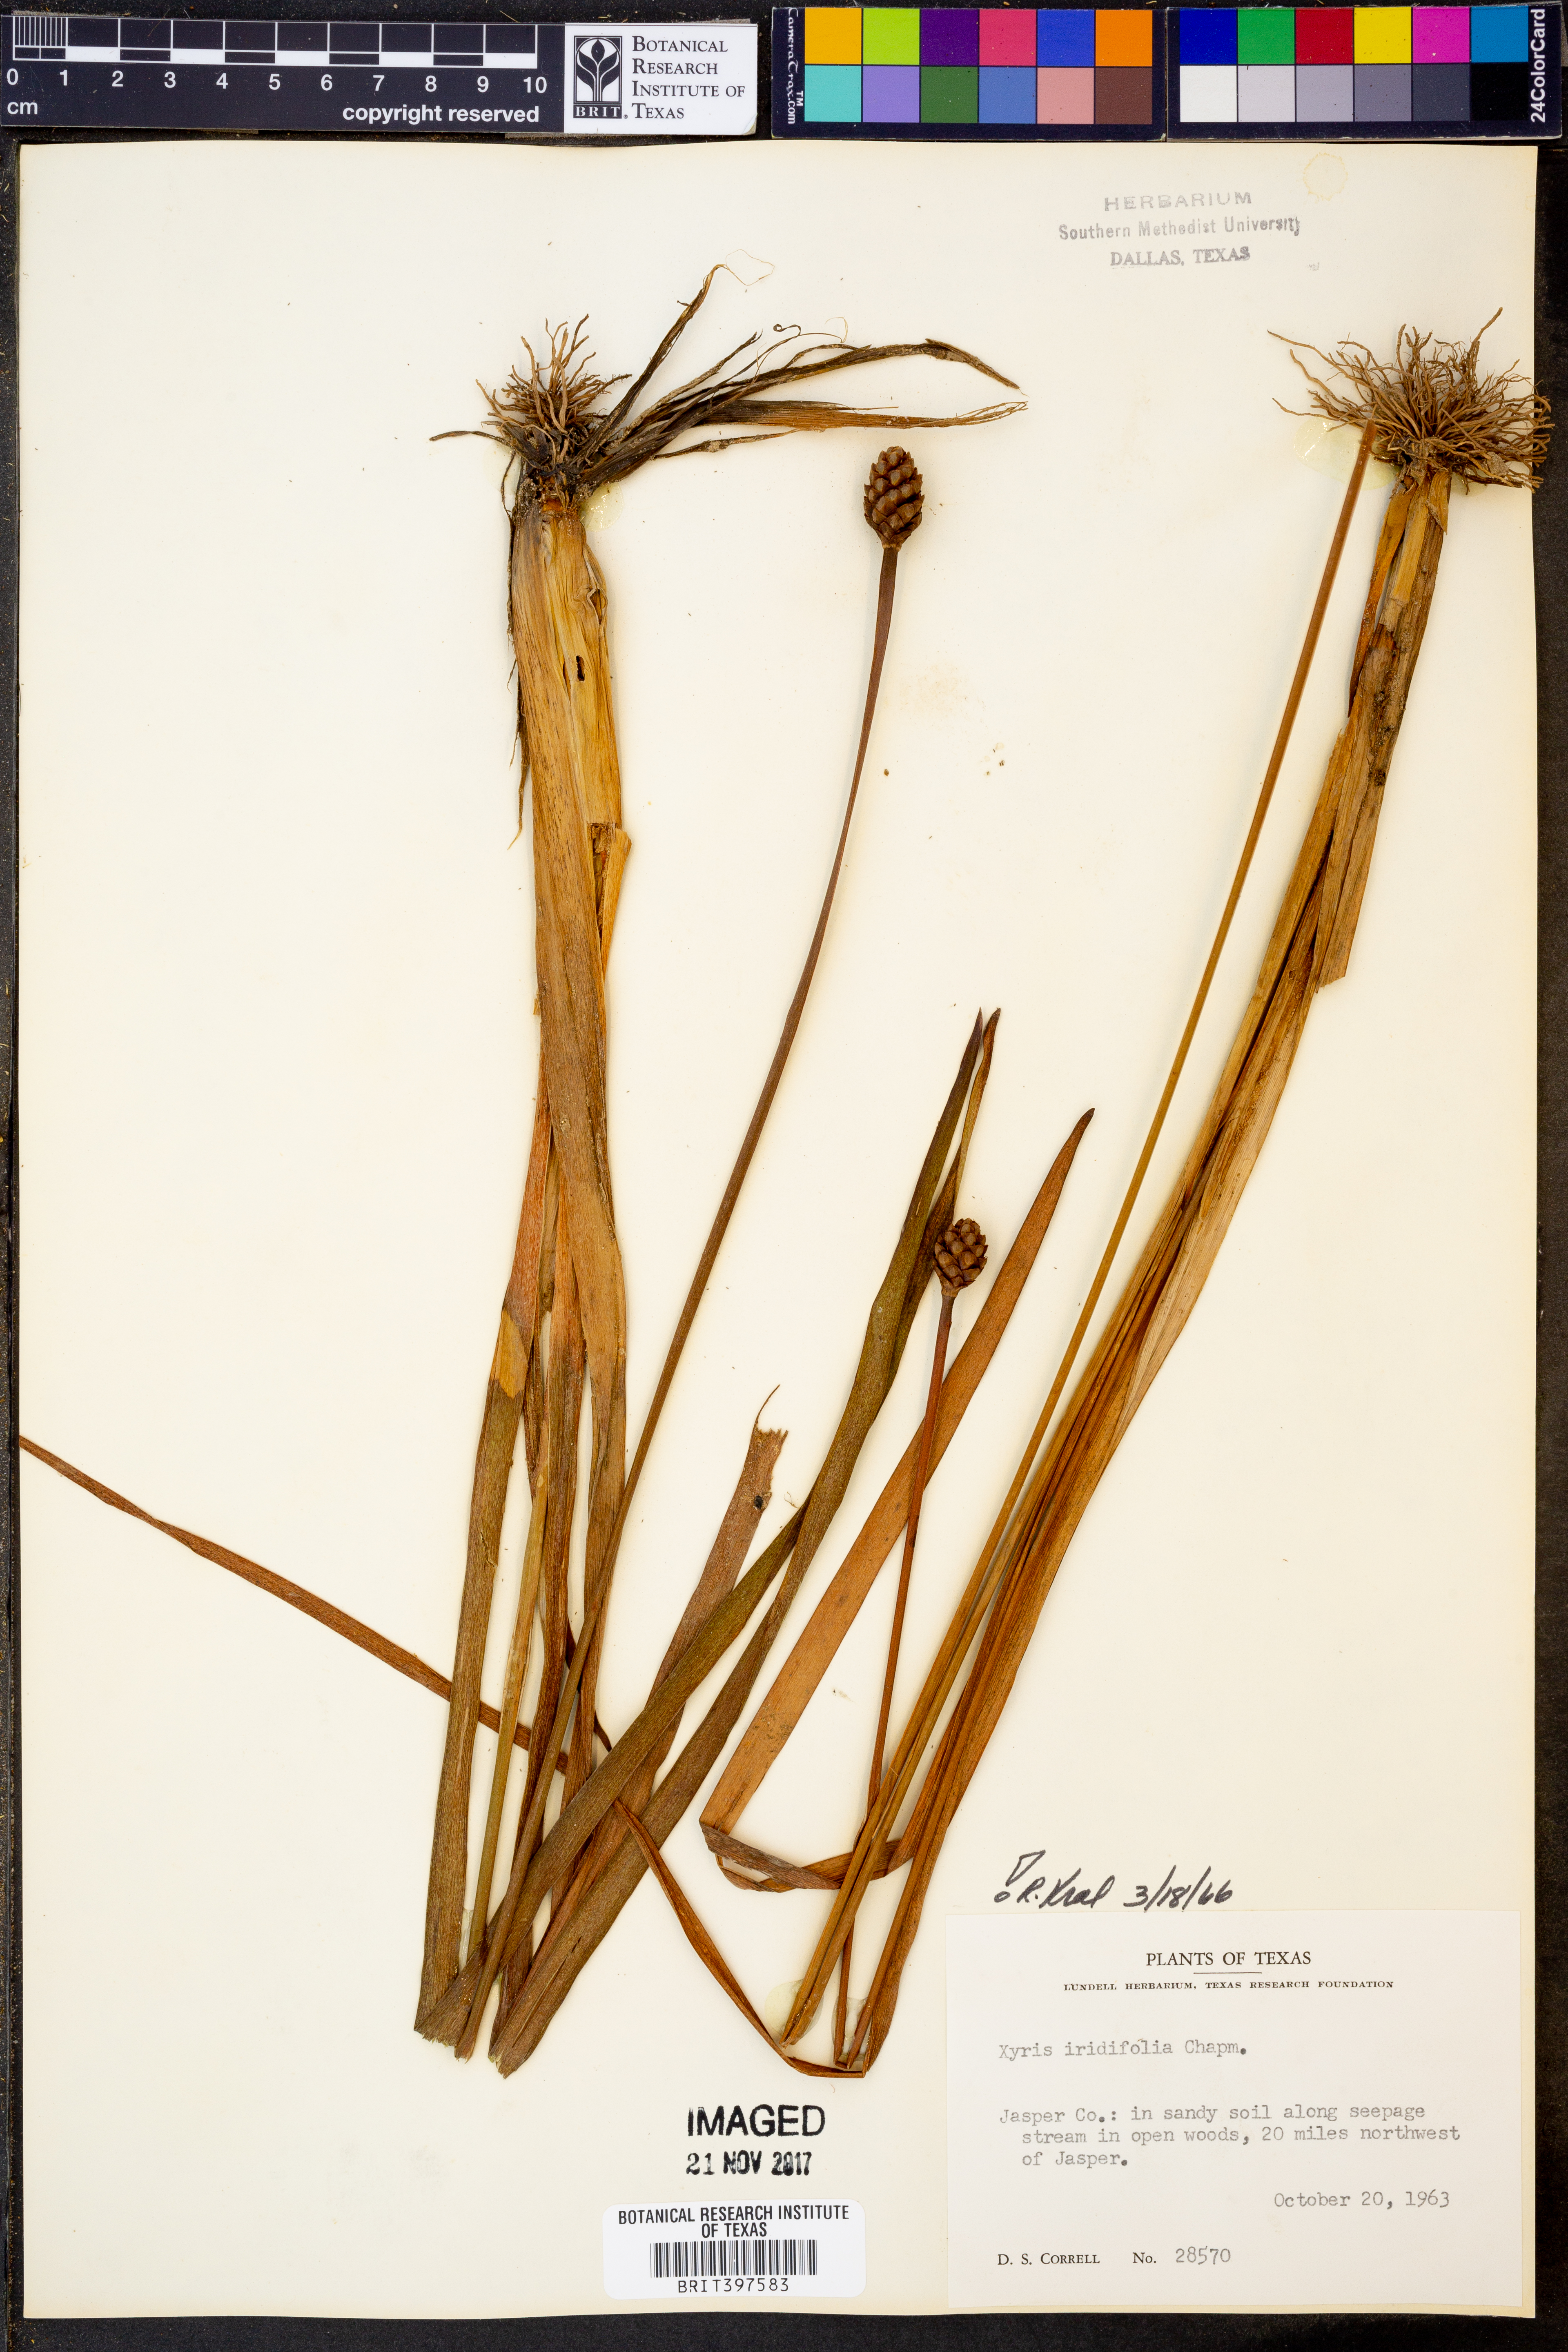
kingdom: Plantae
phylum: Tracheophyta
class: Liliopsida
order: Poales
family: Xyridaceae
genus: Xyris
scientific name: Xyris laxifolia
